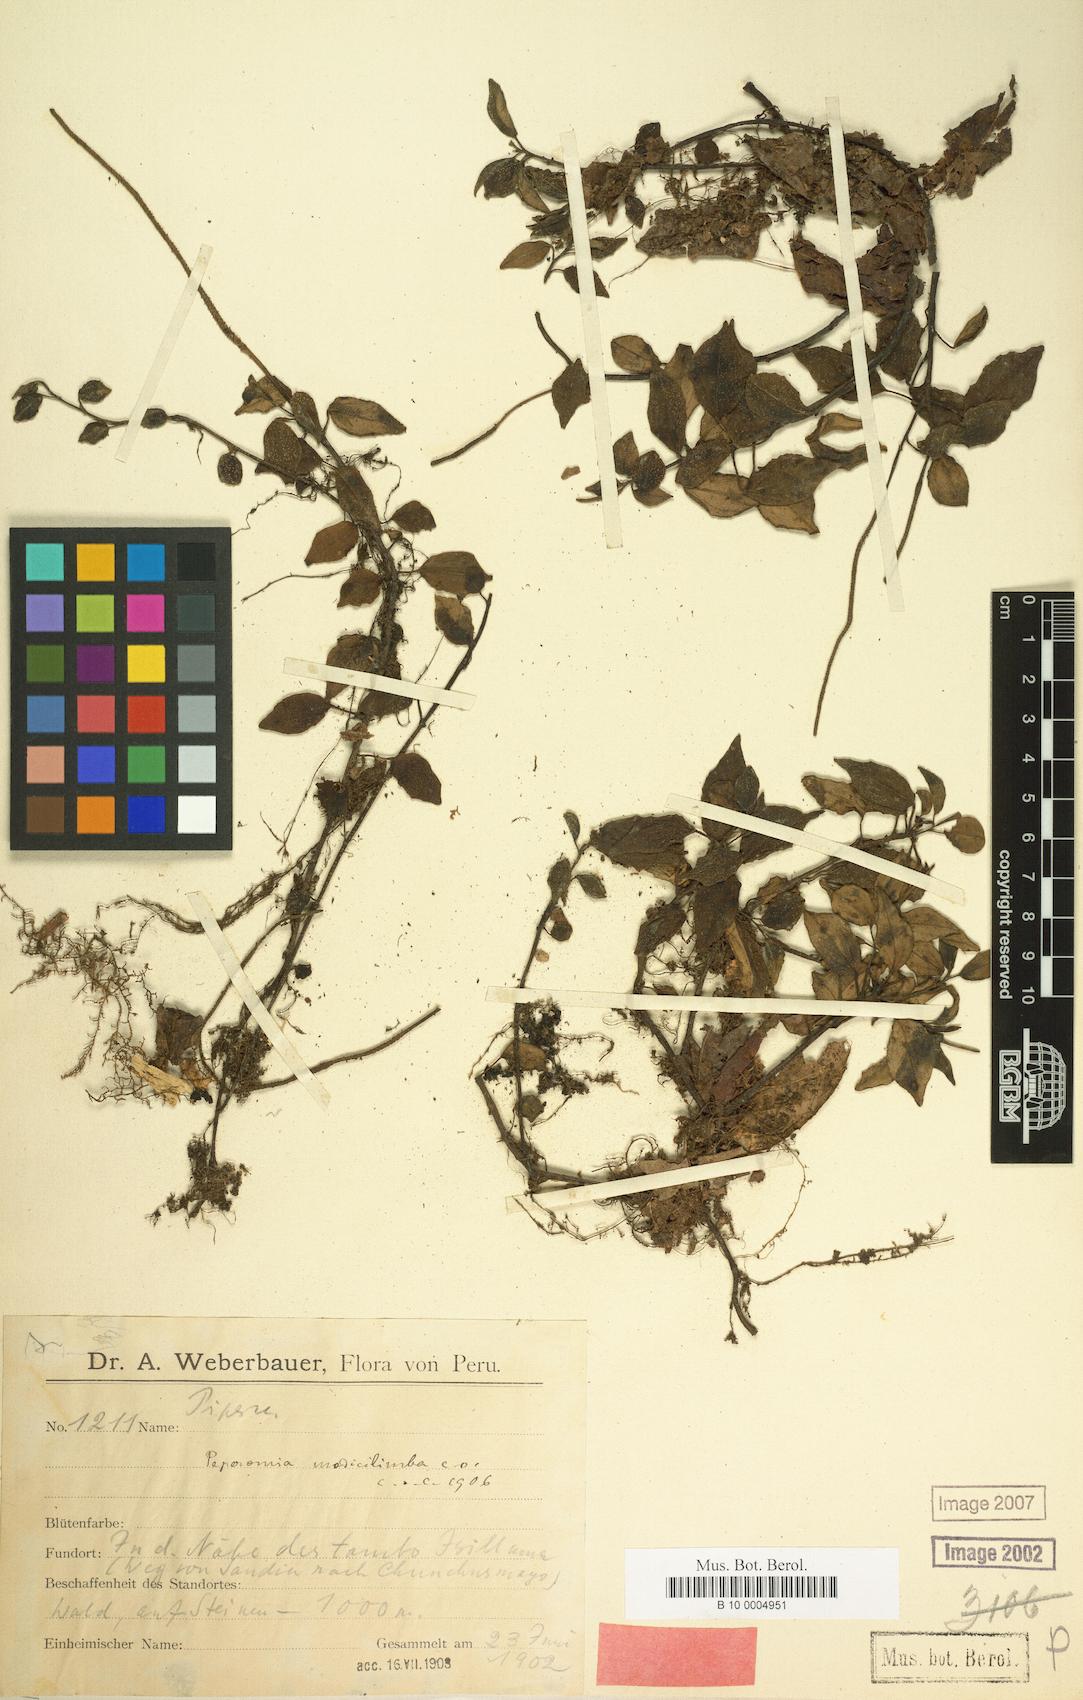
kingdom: Plantae
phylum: Tracheophyta
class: Magnoliopsida
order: Piperales
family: Piperaceae
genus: Peperomia
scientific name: Peperomia modicilimba
